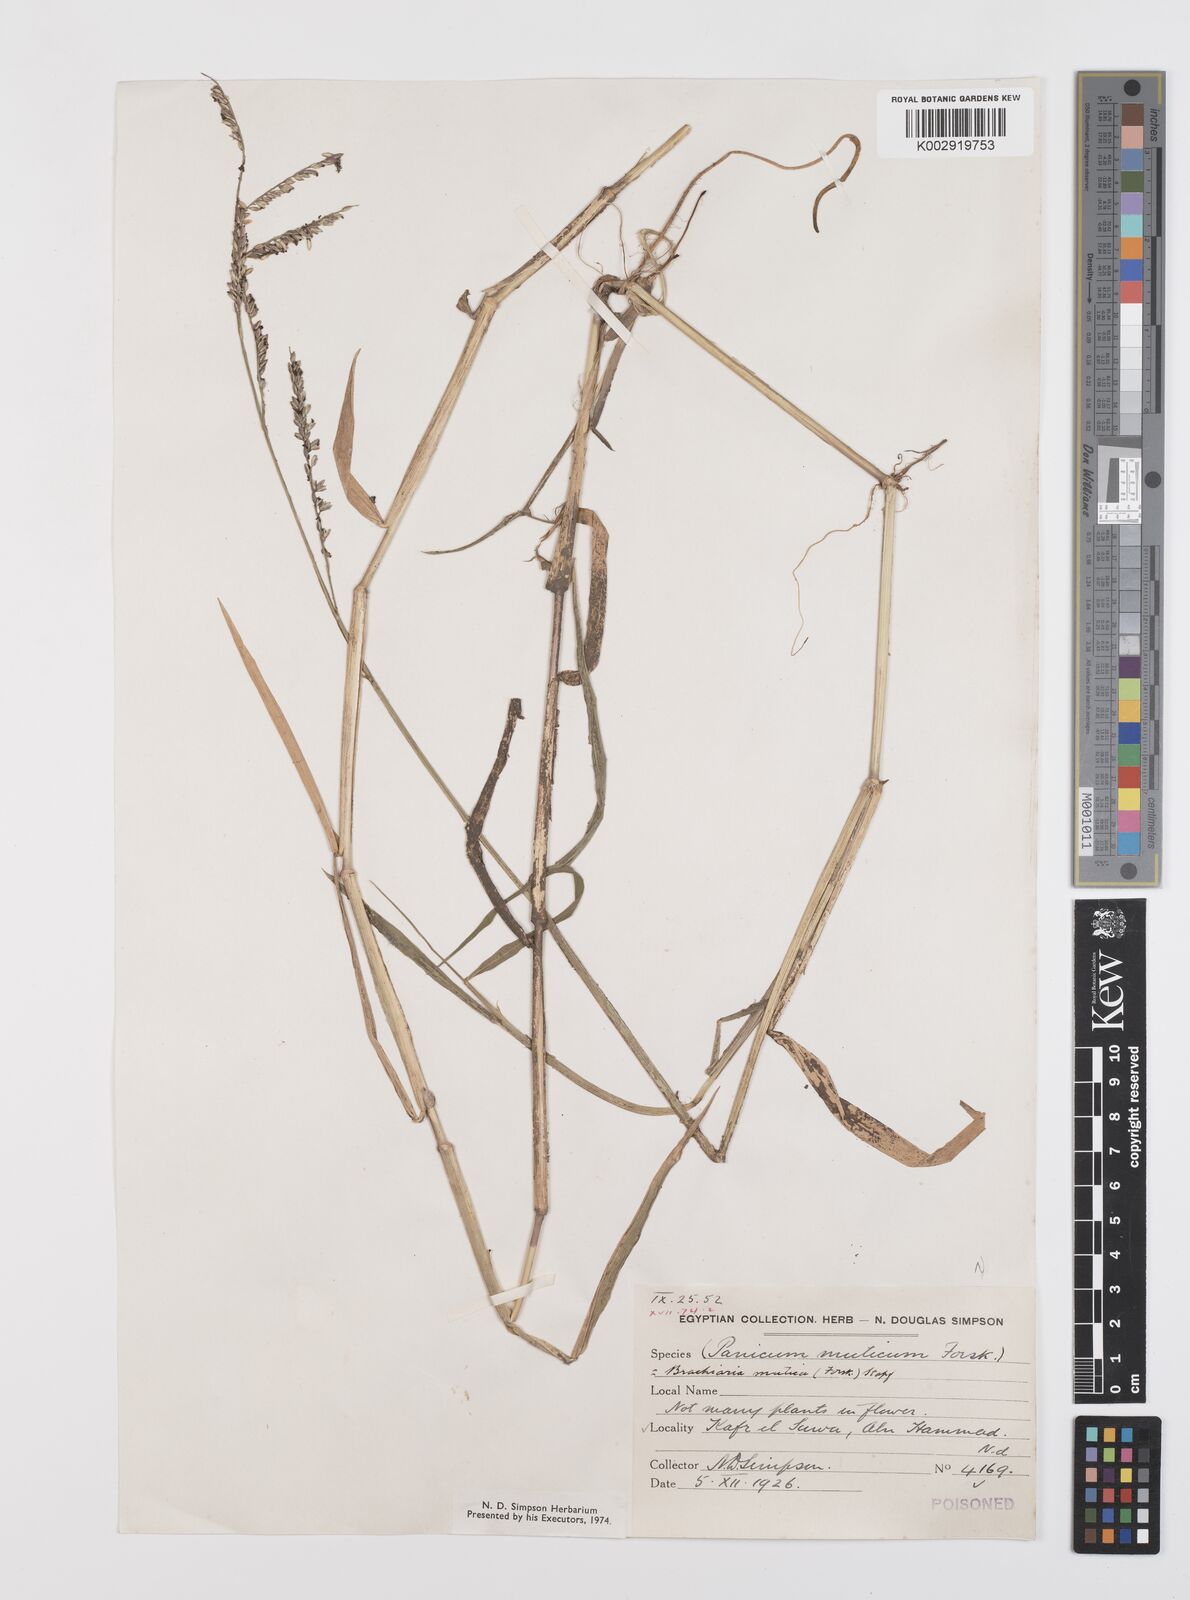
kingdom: Plantae
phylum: Tracheophyta
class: Liliopsida
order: Poales
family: Poaceae
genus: Urochloa
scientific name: Urochloa mutica
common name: Para grass
